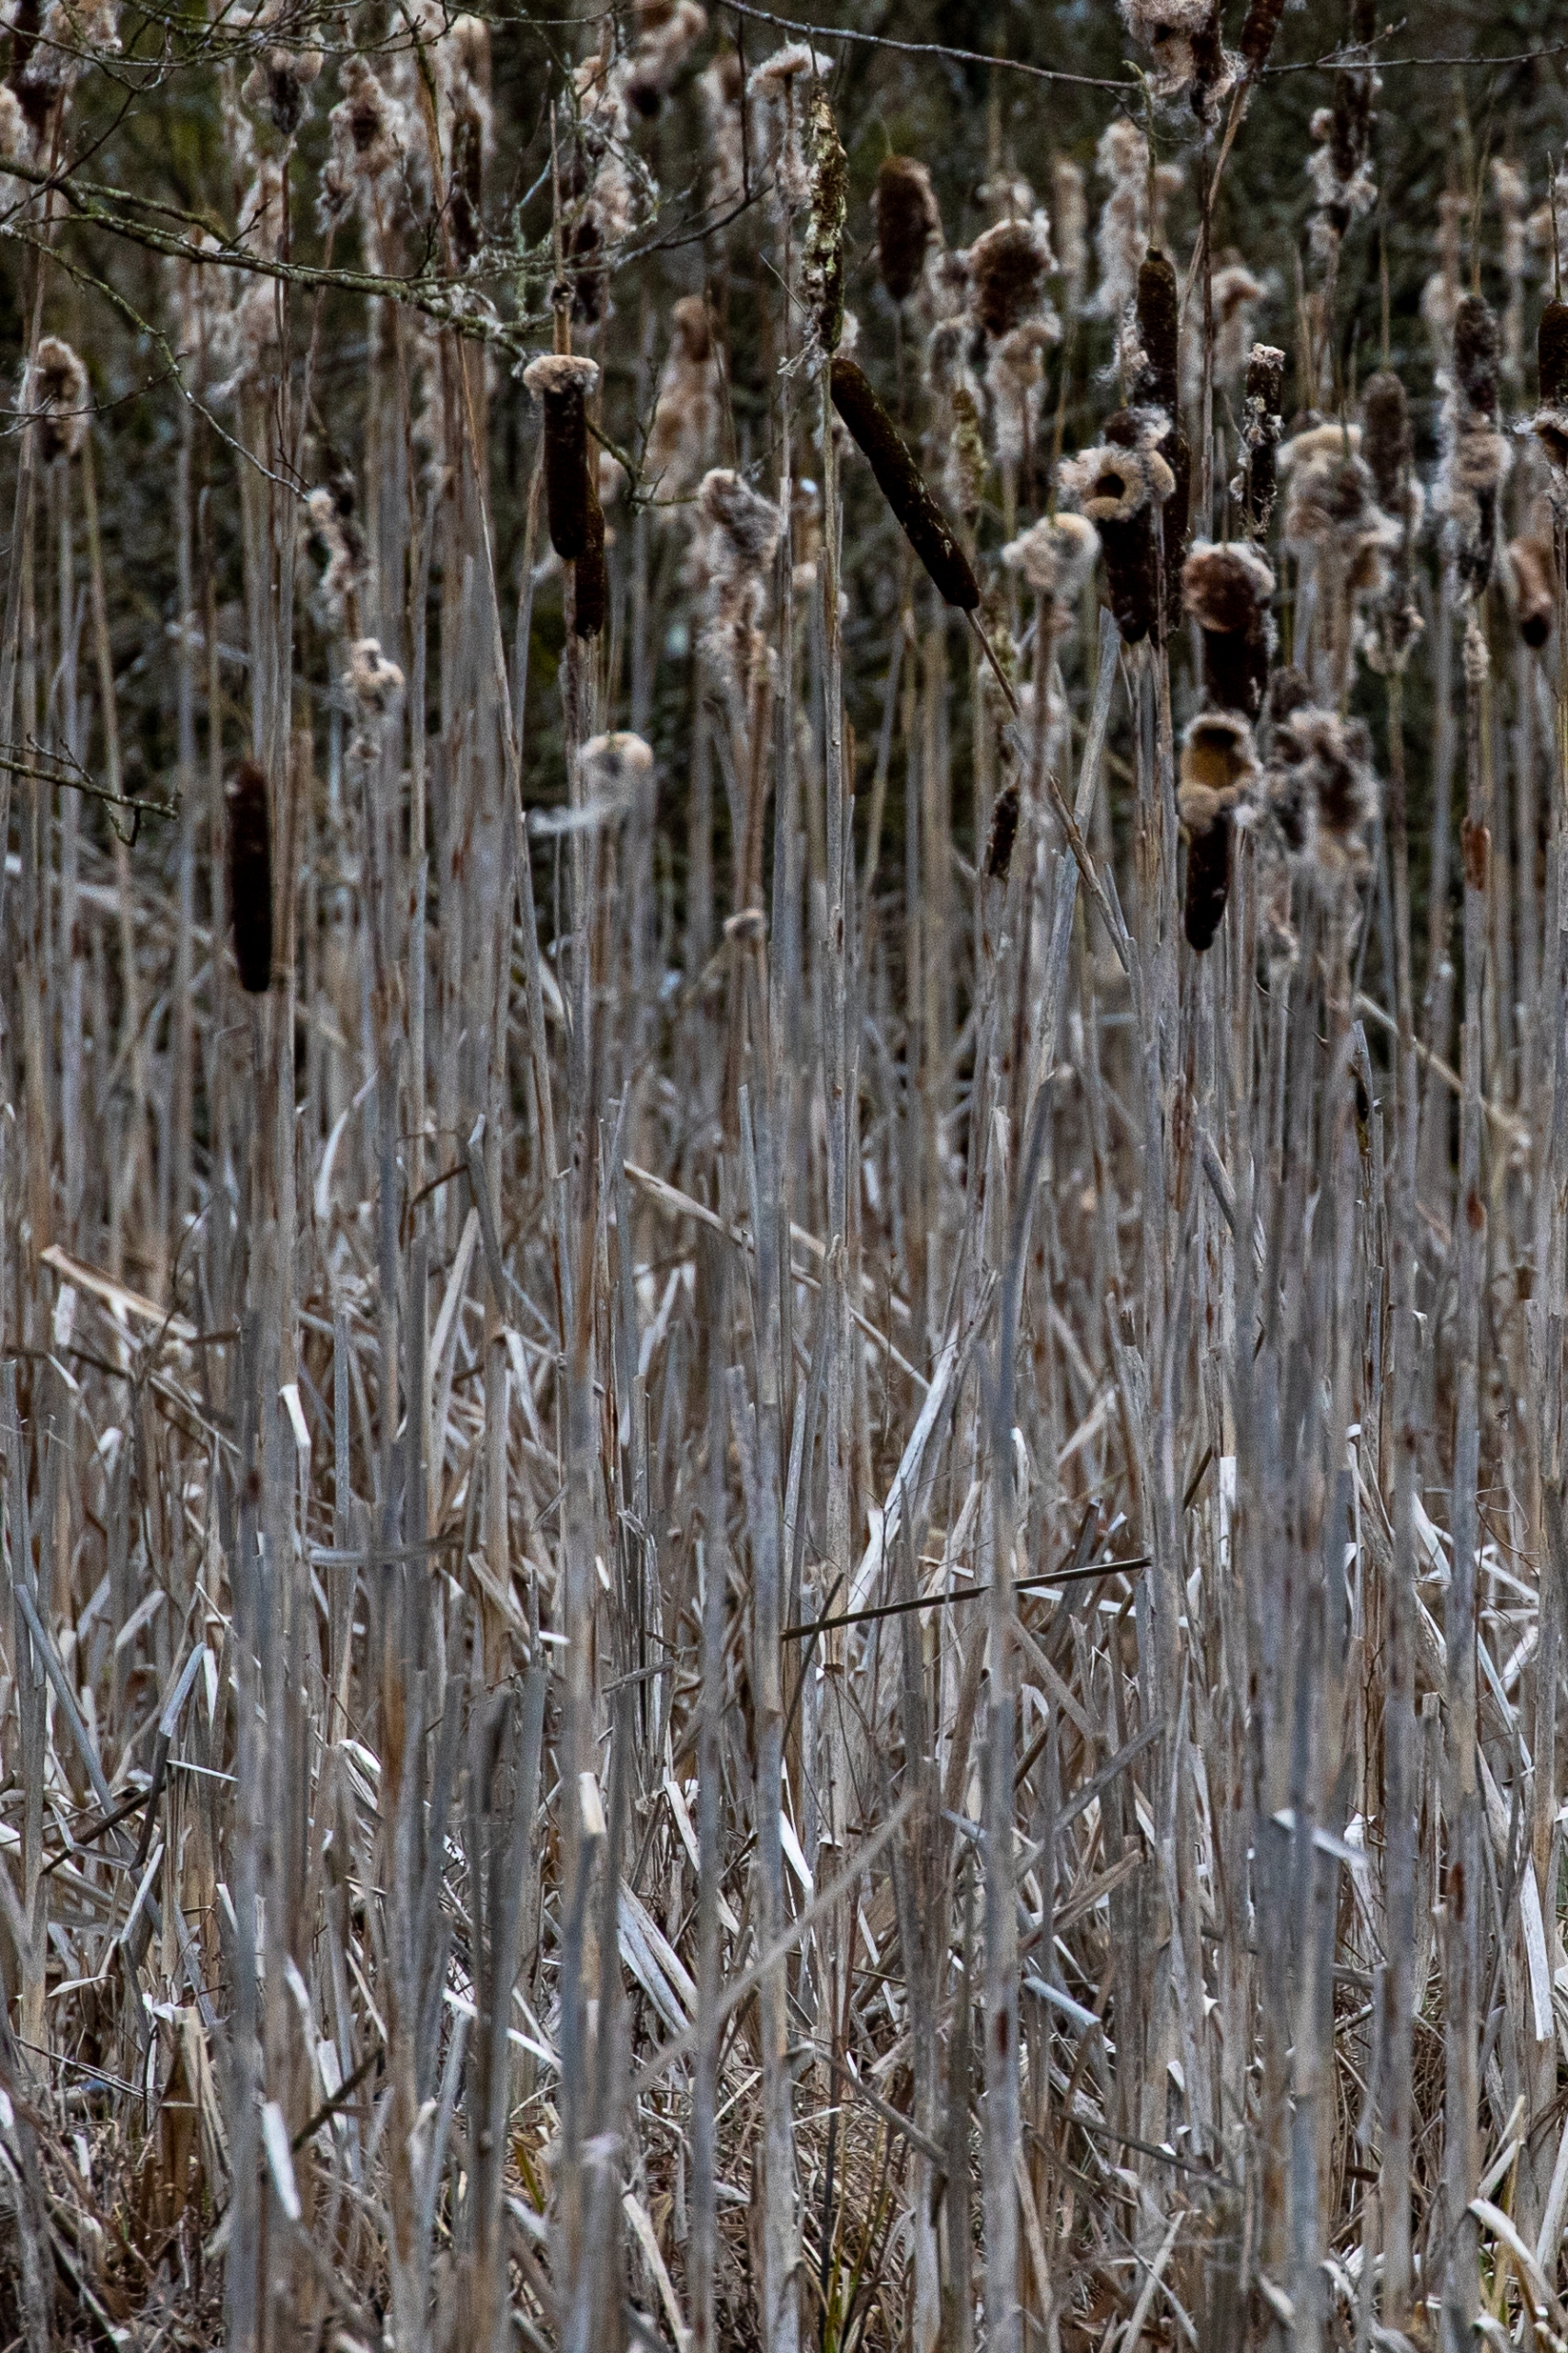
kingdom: Plantae
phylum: Tracheophyta
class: Liliopsida
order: Poales
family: Typhaceae
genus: Typha
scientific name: Typha latifolia
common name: Bredbladet dunhammer
